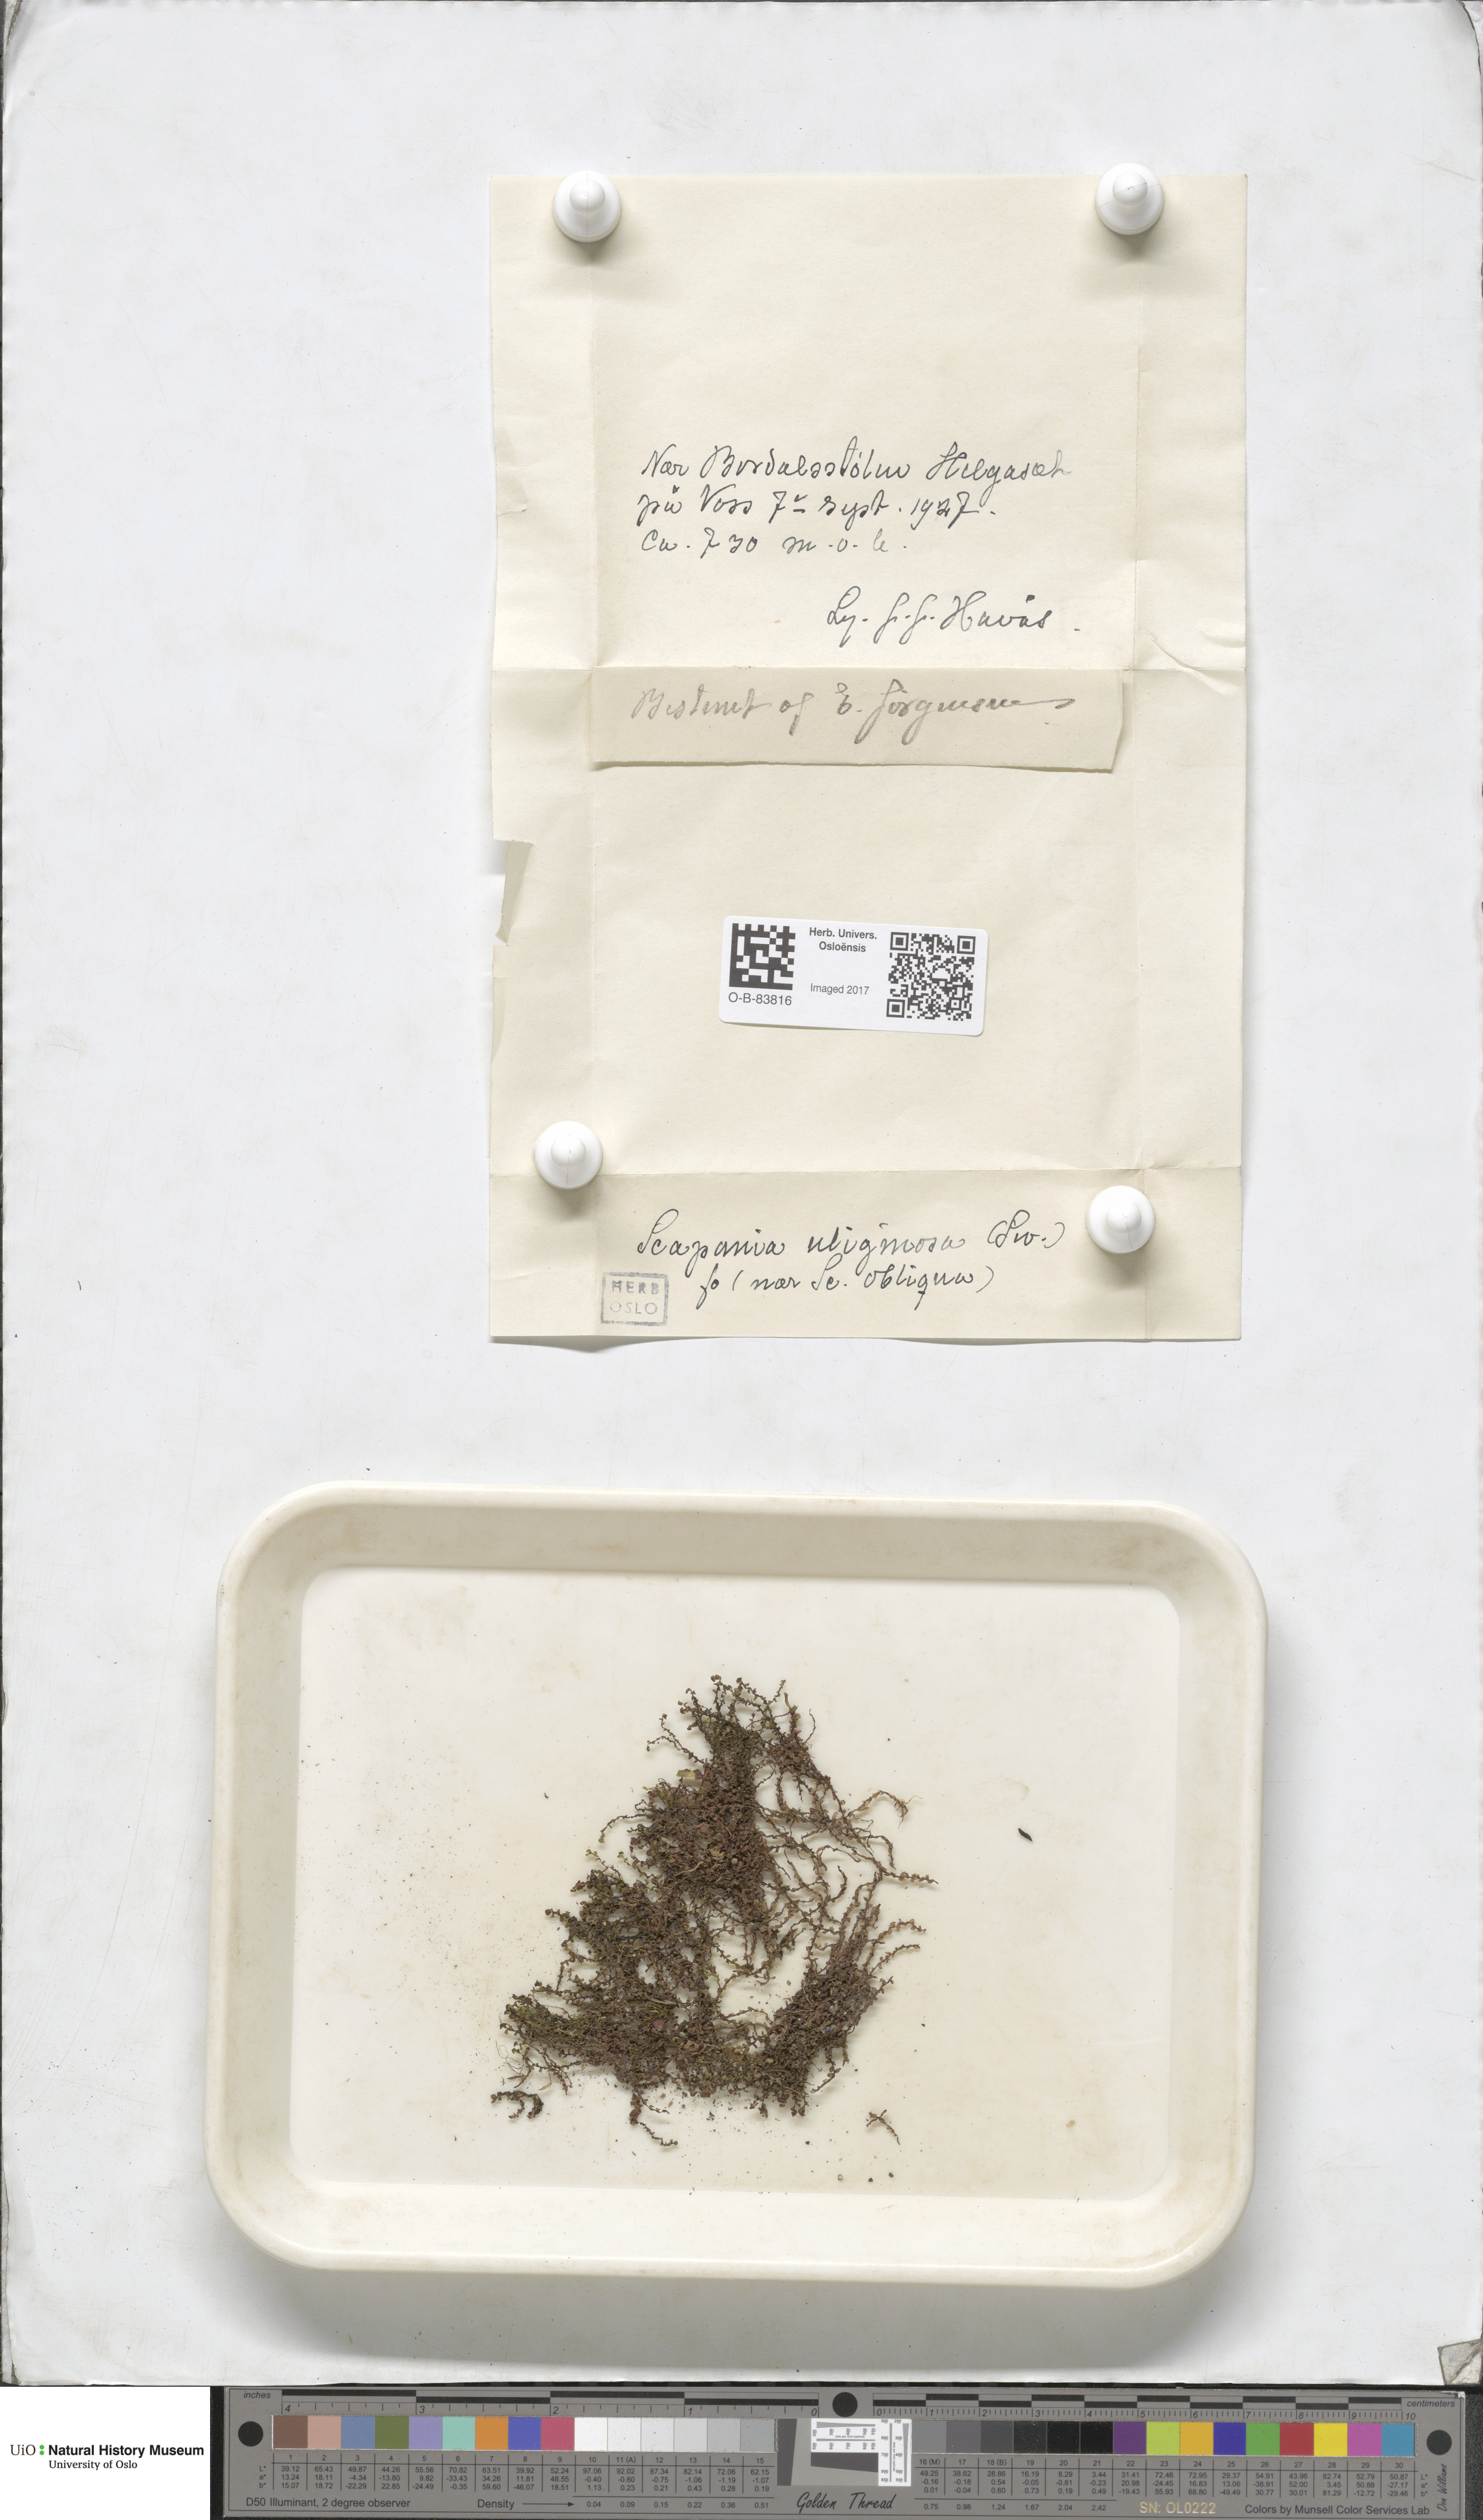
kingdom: Plantae
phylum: Marchantiophyta
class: Jungermanniopsida
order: Jungermanniales
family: Scapaniaceae
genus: Scapania
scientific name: Scapania uliginosa
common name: Marsh earwort
